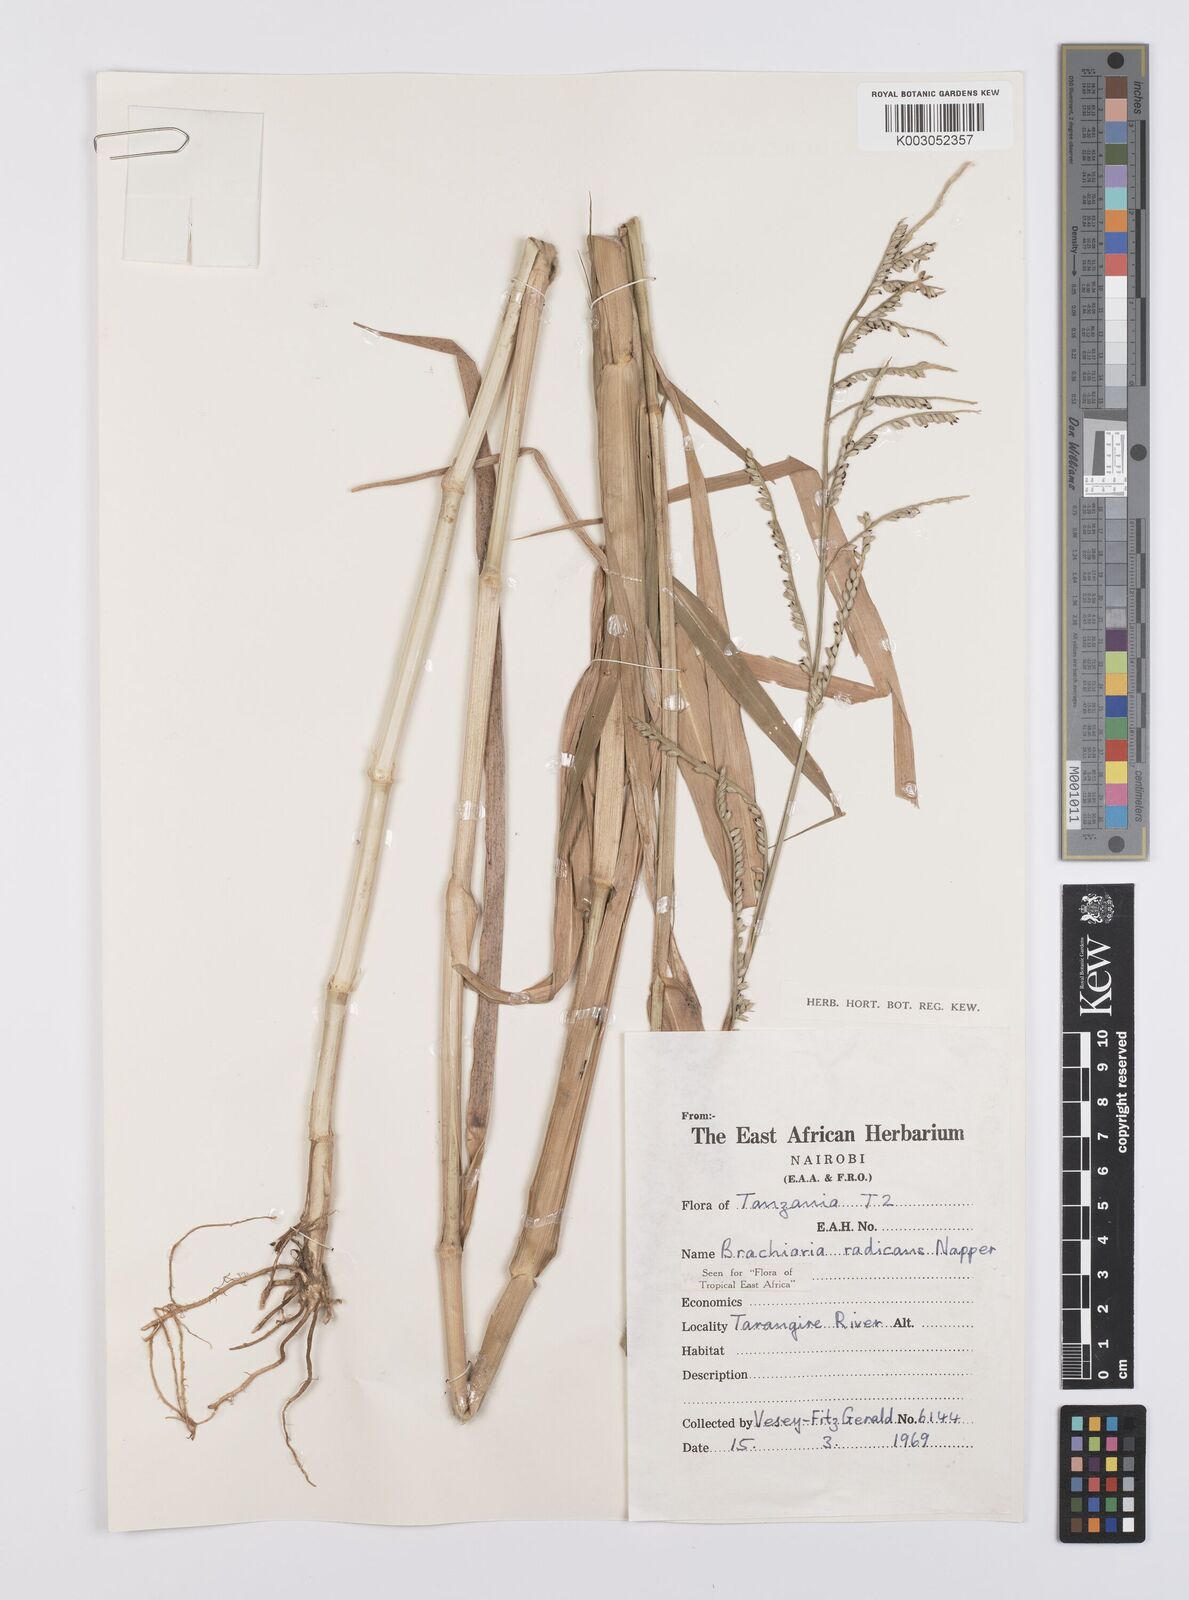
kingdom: Plantae
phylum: Tracheophyta
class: Liliopsida
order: Poales
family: Poaceae
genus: Urochloa
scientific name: Urochloa arrecta
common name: African signalgrass
